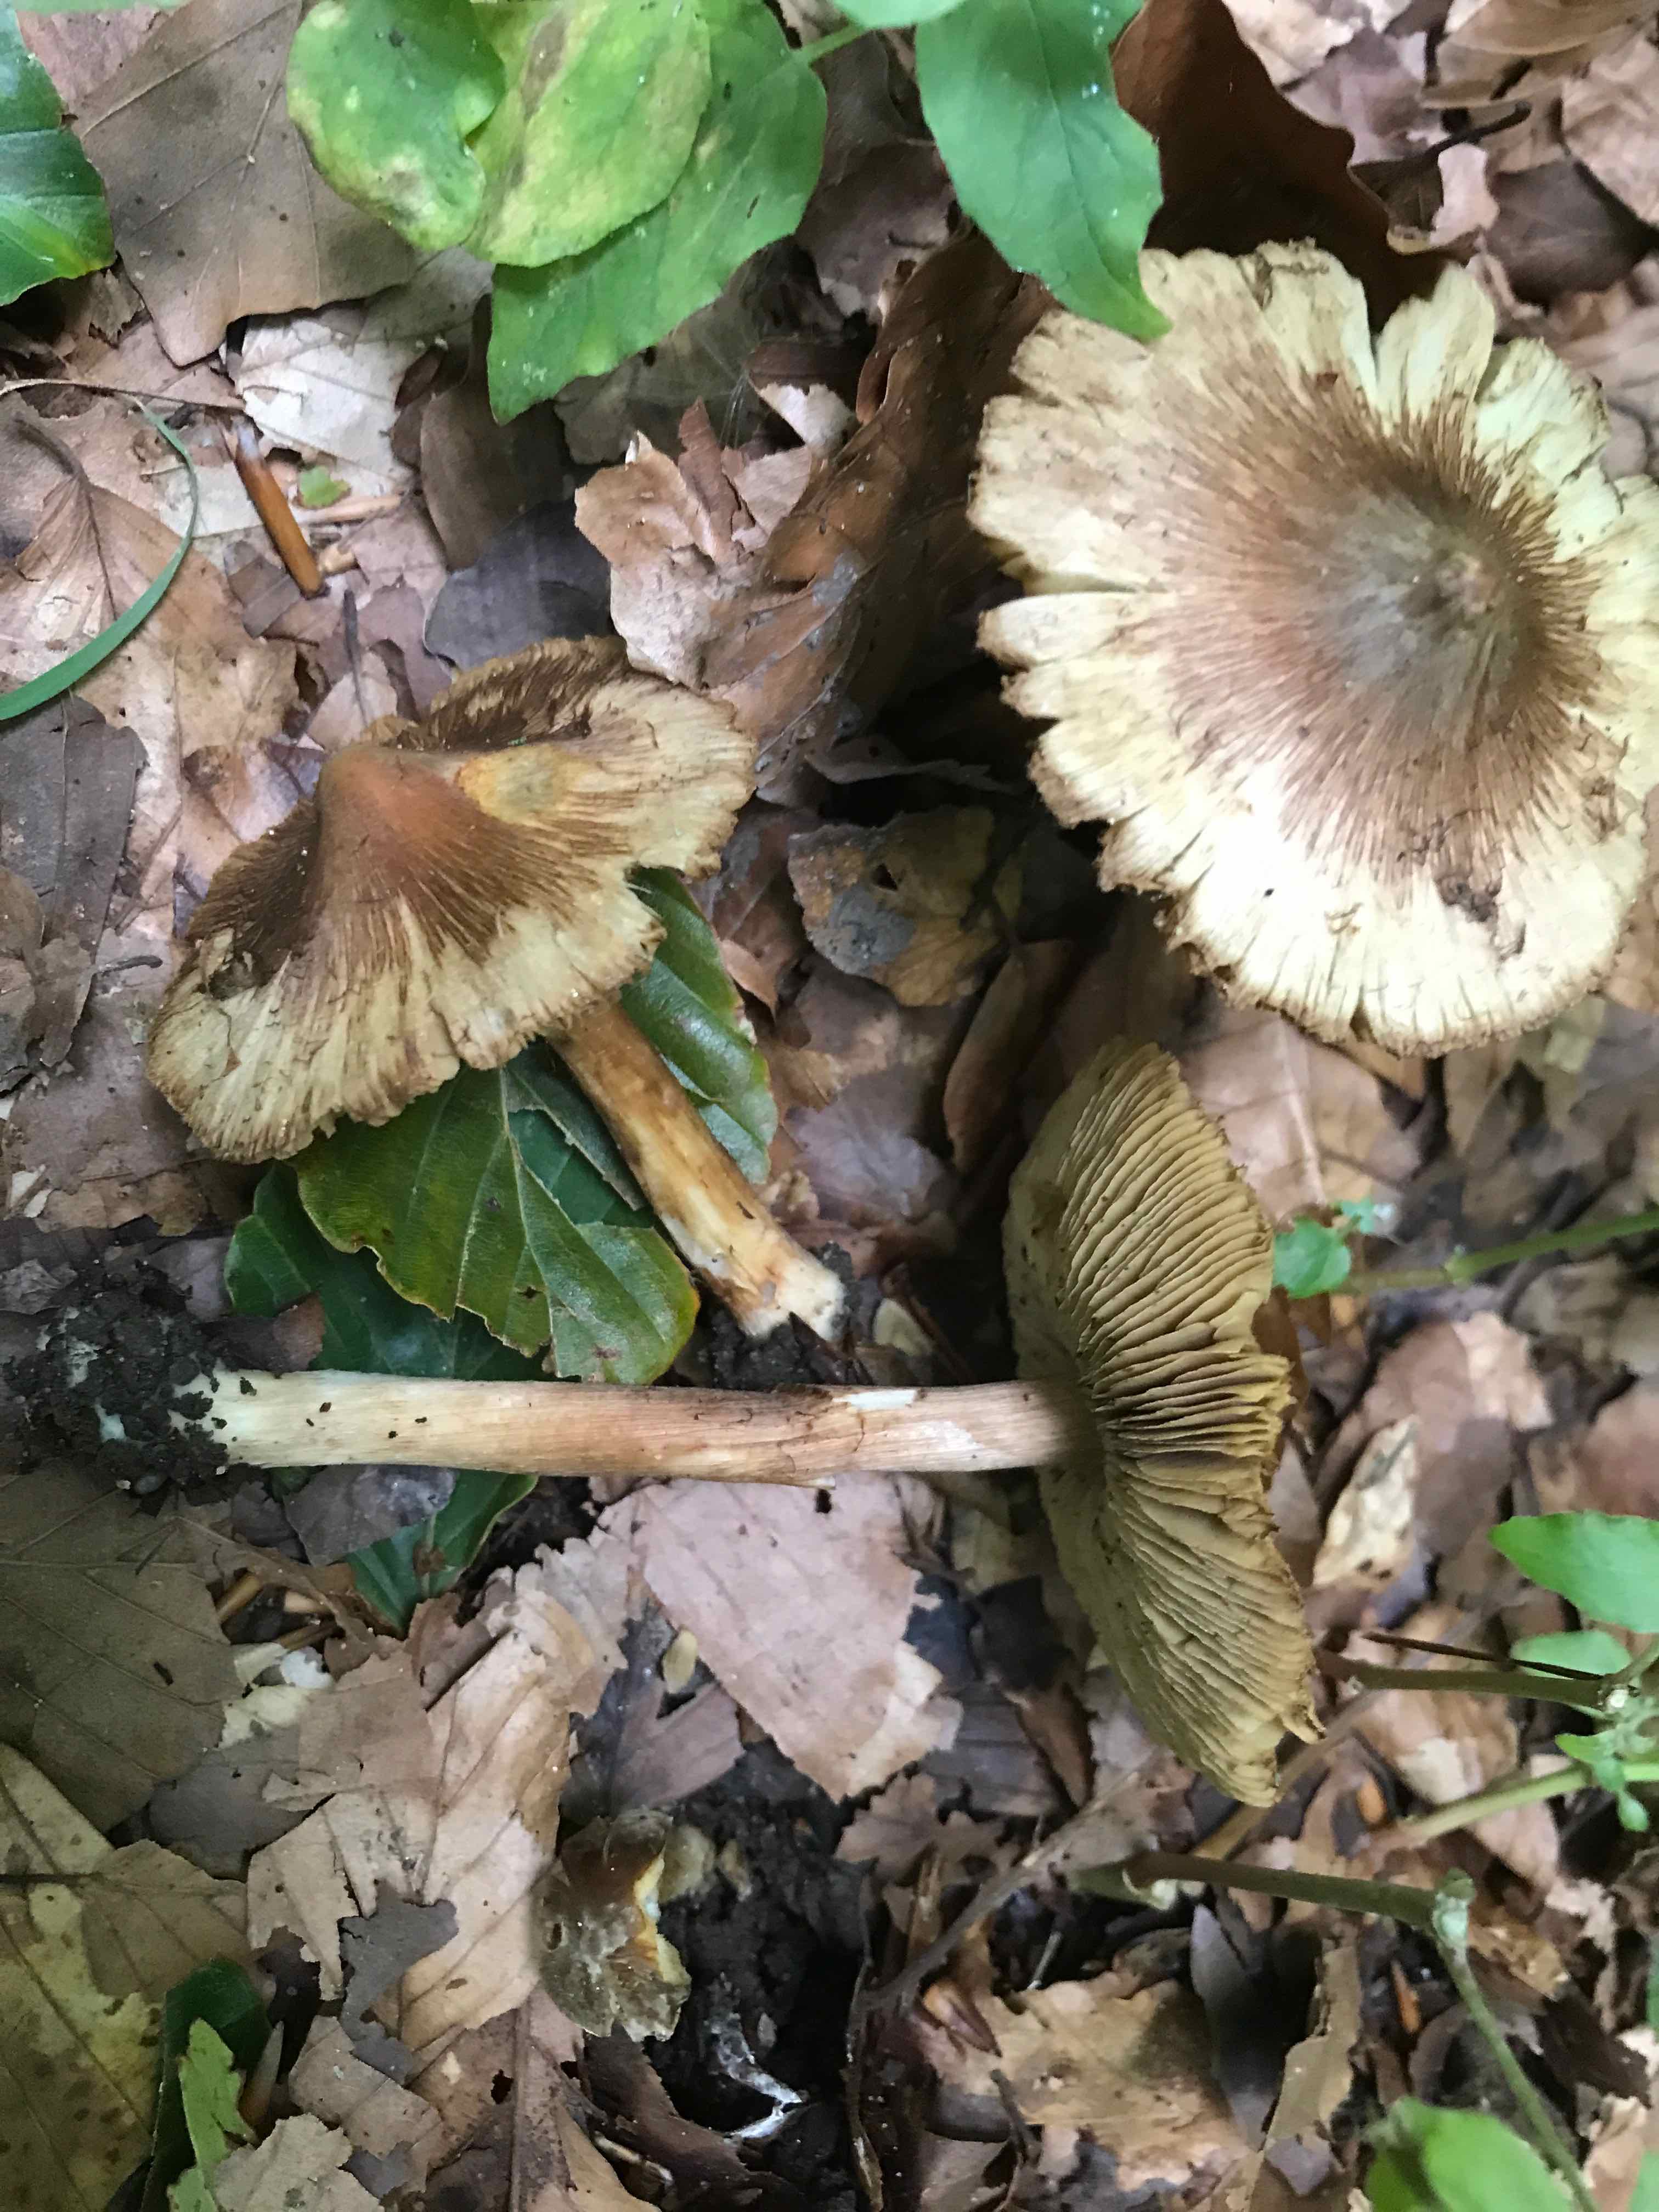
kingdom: Fungi
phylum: Basidiomycota
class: Agaricomycetes
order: Agaricales
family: Inocybaceae
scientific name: Inocybaceae
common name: trævlhatfamilien
